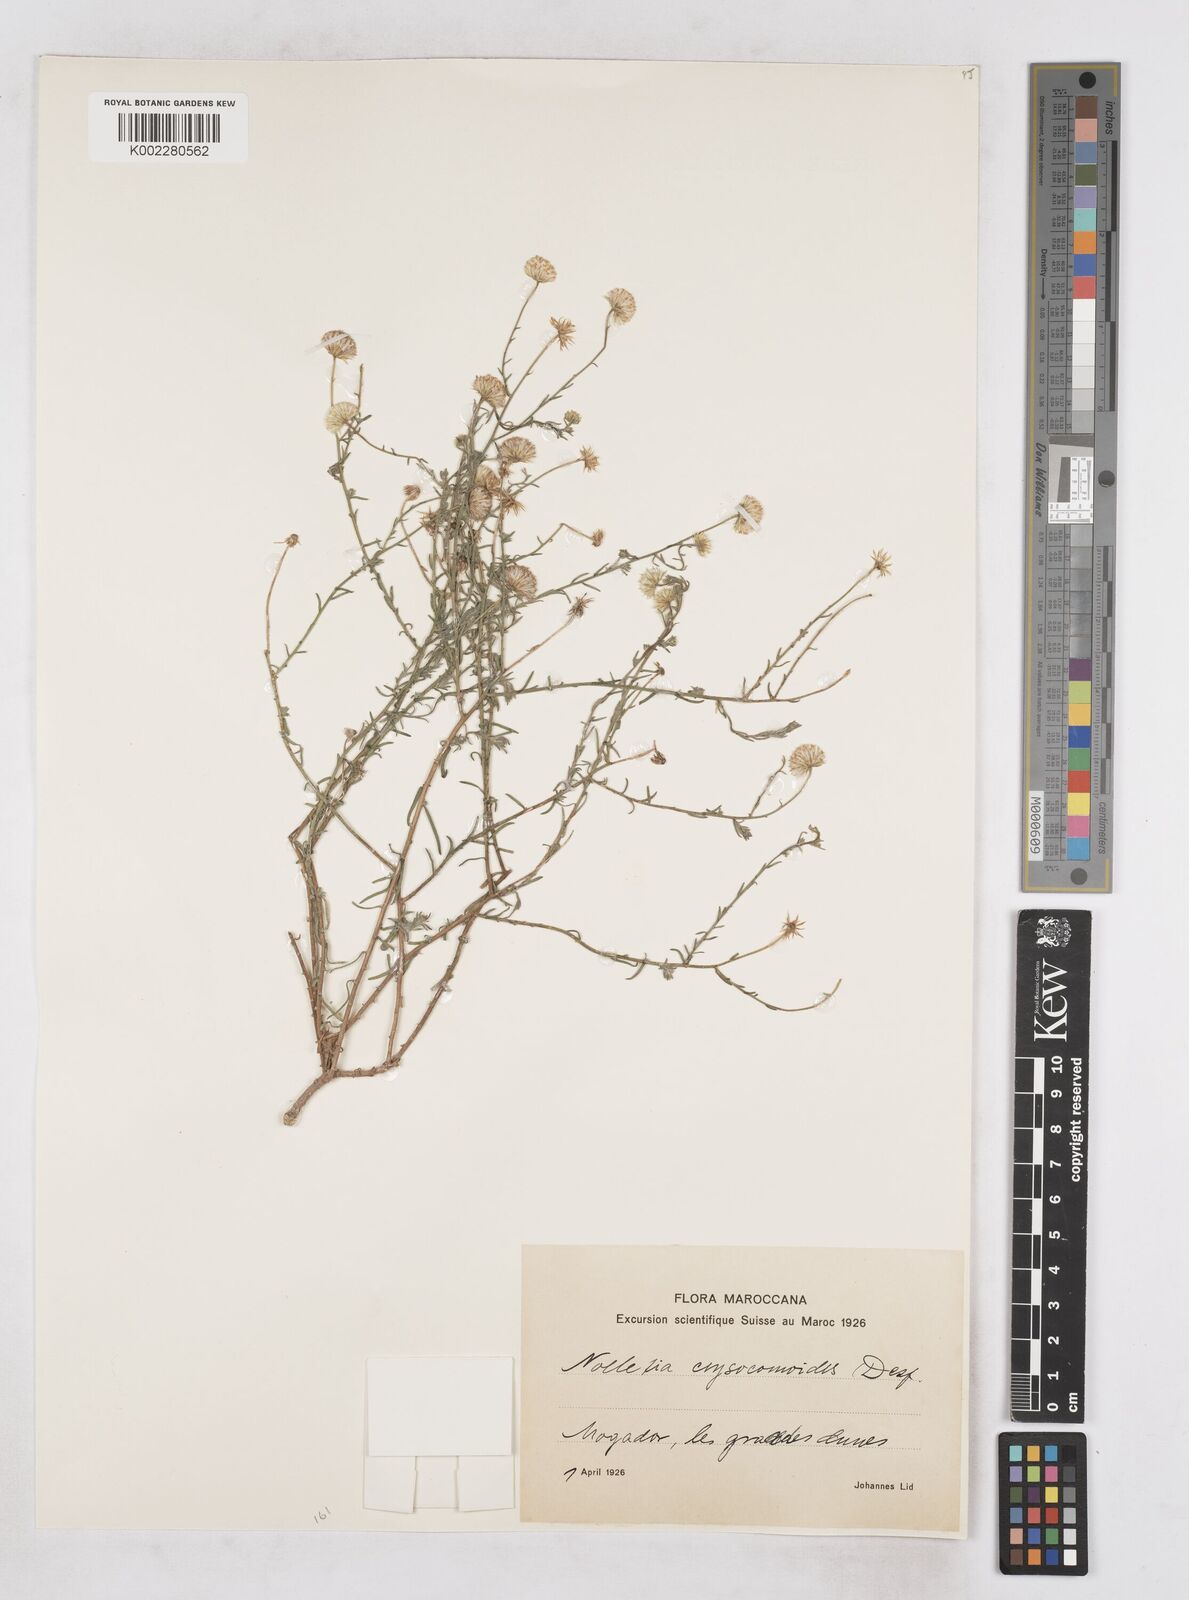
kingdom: Plantae
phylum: Tracheophyta
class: Magnoliopsida
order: Asterales
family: Asteraceae
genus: Nolletia
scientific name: Nolletia chrysocomoides
